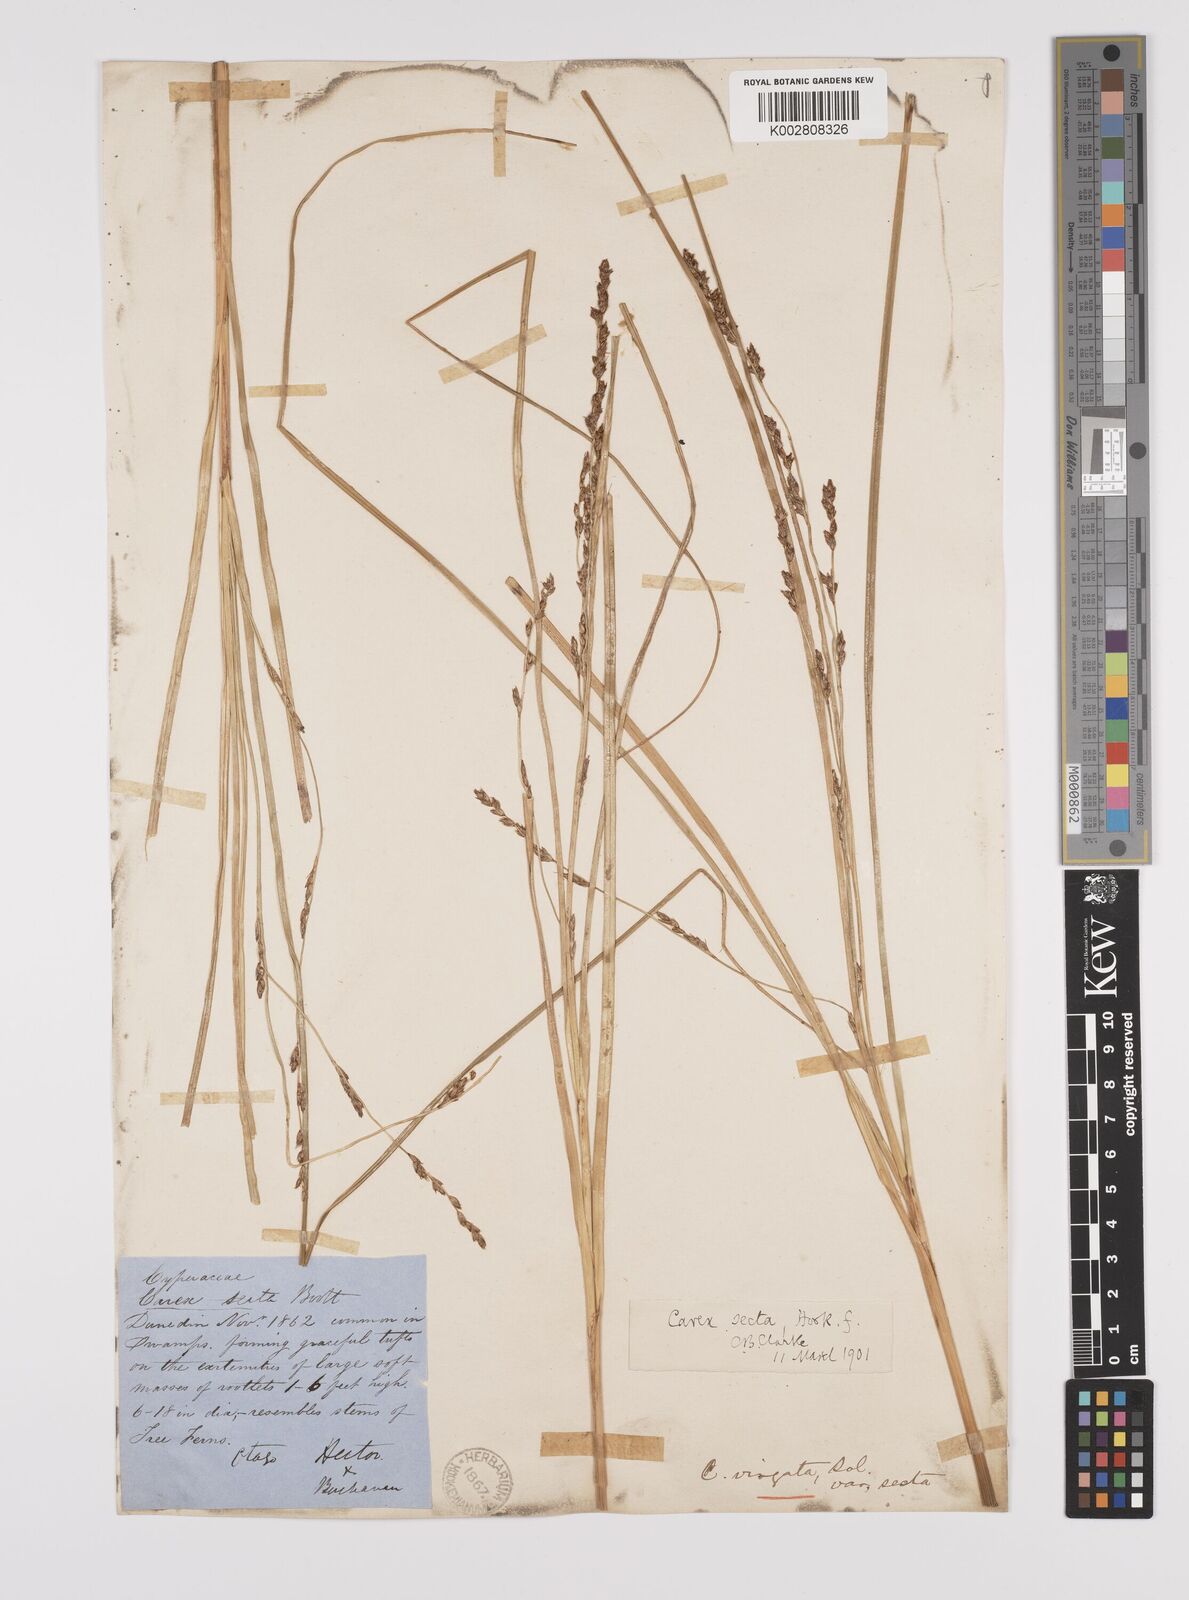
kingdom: Plantae
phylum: Tracheophyta
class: Liliopsida
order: Poales
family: Cyperaceae
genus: Carex
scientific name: Carex appressa
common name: Tussock sedge
